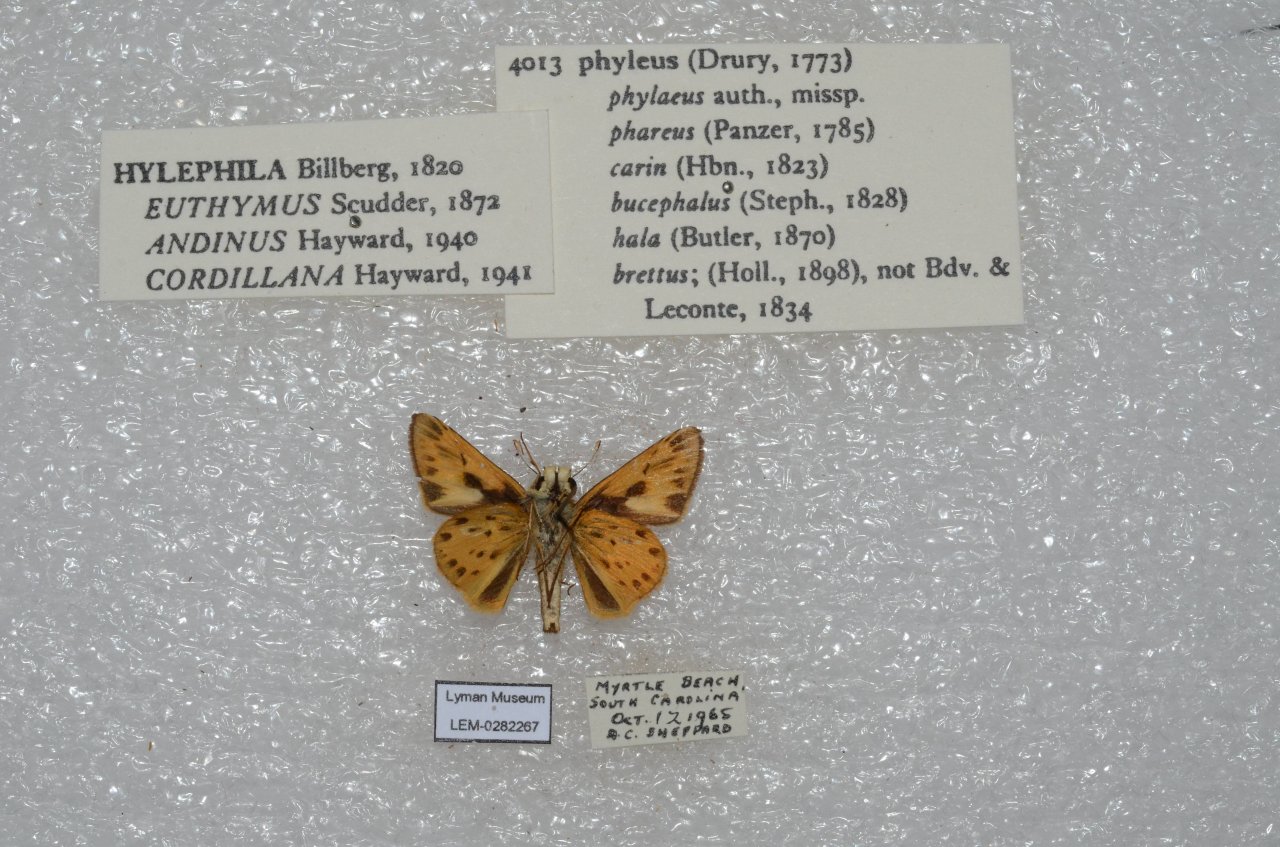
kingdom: Animalia
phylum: Arthropoda
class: Insecta
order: Lepidoptera
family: Hesperiidae
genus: Hylephila
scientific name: Hylephila phyleus
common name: Fiery Skipper
